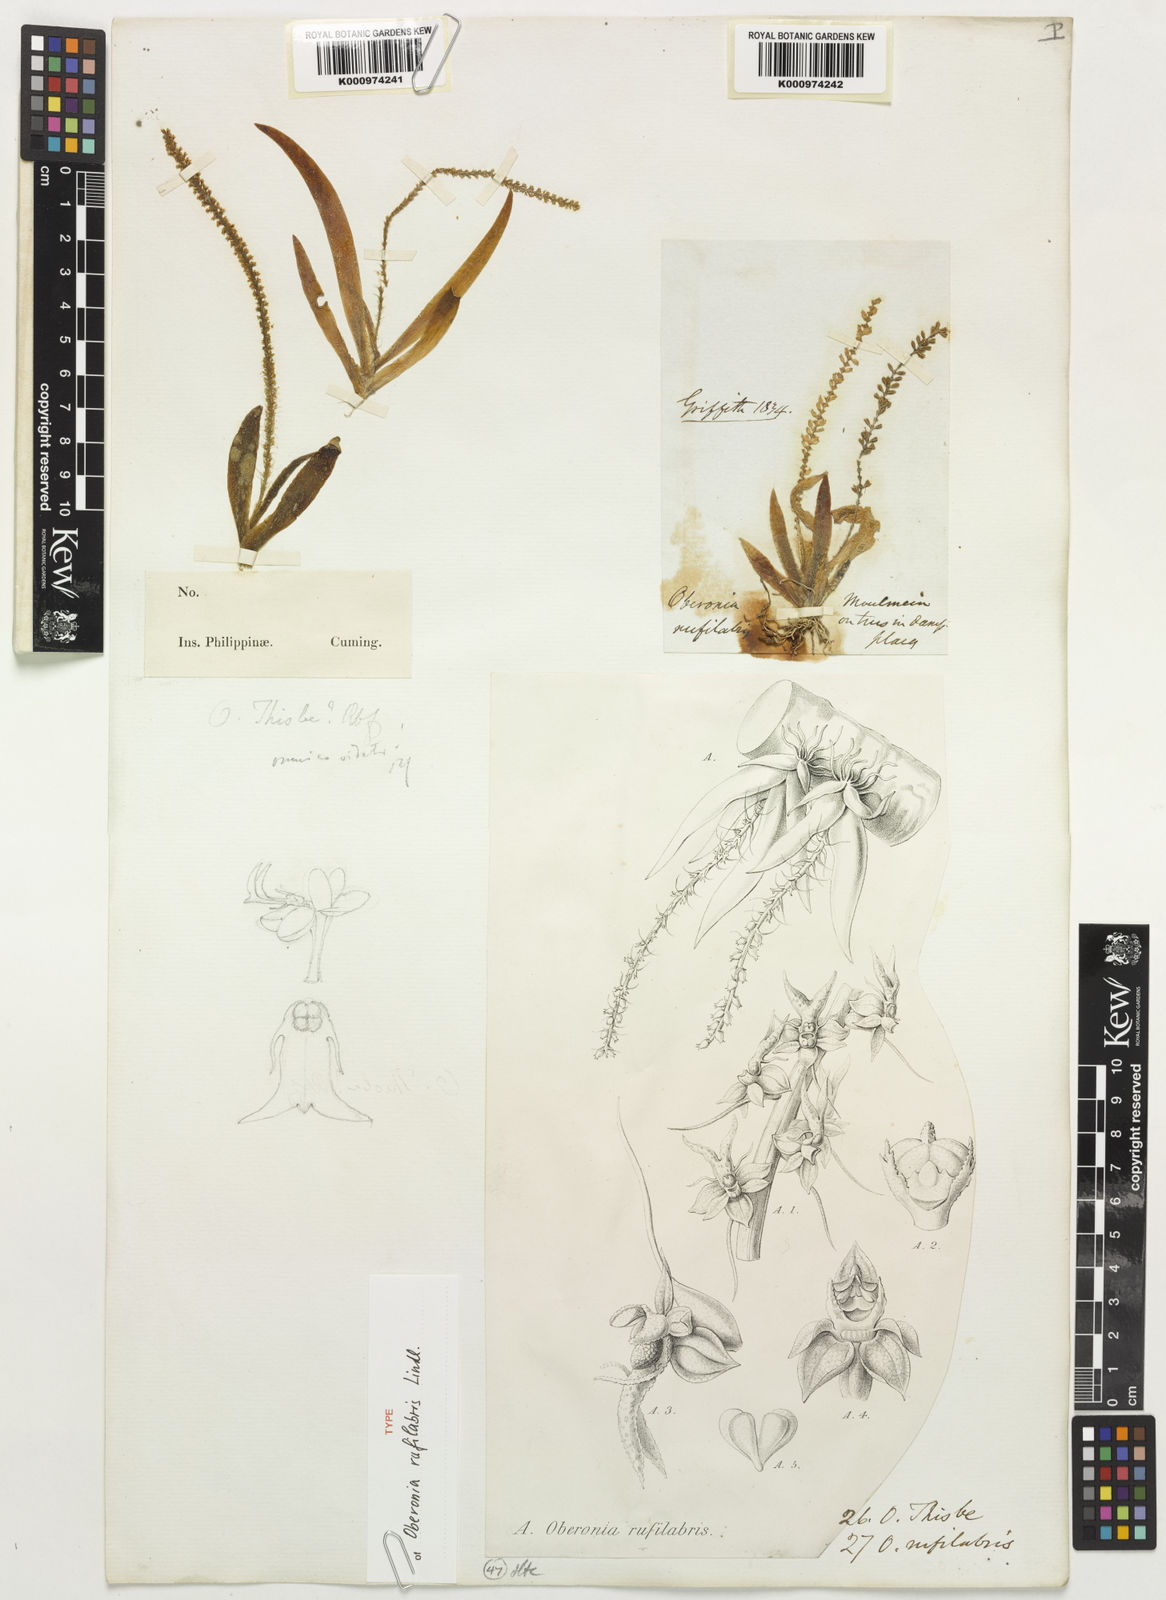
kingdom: Plantae
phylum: Tracheophyta
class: Liliopsida
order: Asparagales
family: Orchidaceae
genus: Oberonia
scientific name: Oberonia rufilabris
